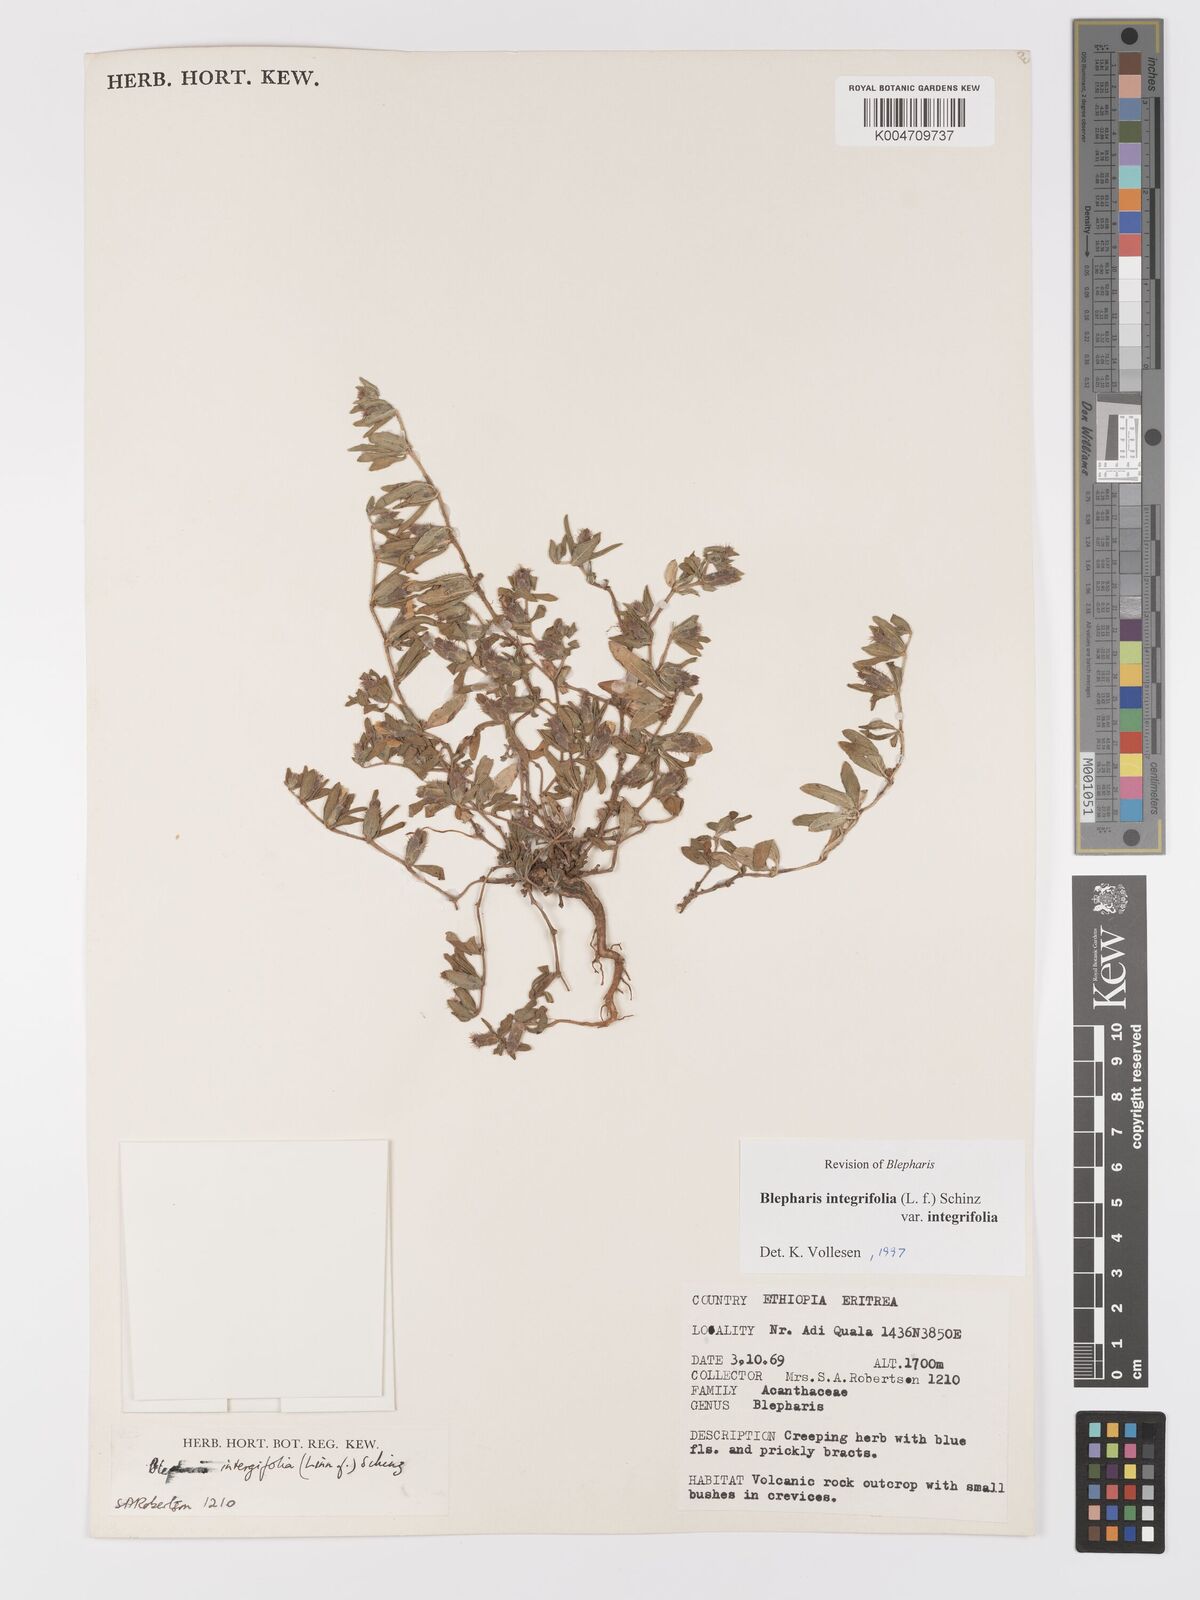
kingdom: Plantae
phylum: Tracheophyta
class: Magnoliopsida
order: Lamiales
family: Acanthaceae
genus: Blepharis
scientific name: Blepharis integrifolia
